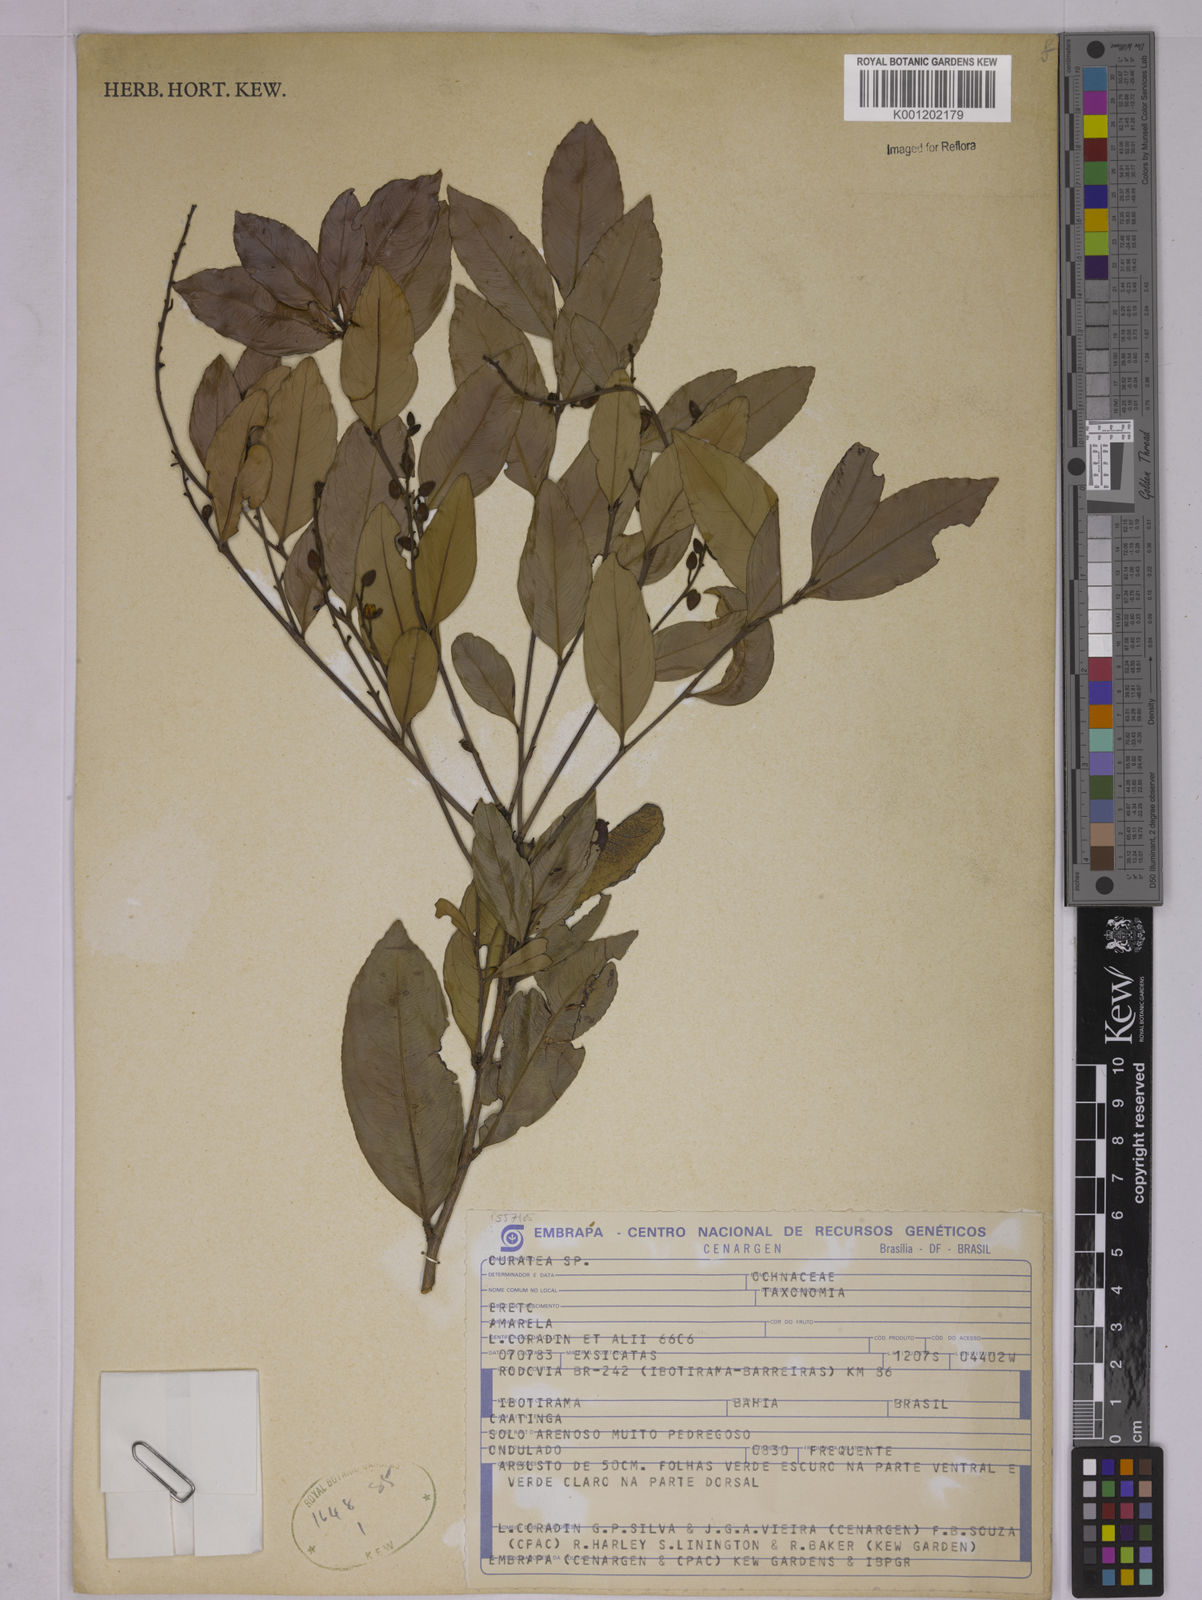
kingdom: Plantae
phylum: Tracheophyta
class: Magnoliopsida
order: Malpighiales
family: Ochnaceae
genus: Ouratea
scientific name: Ouratea
